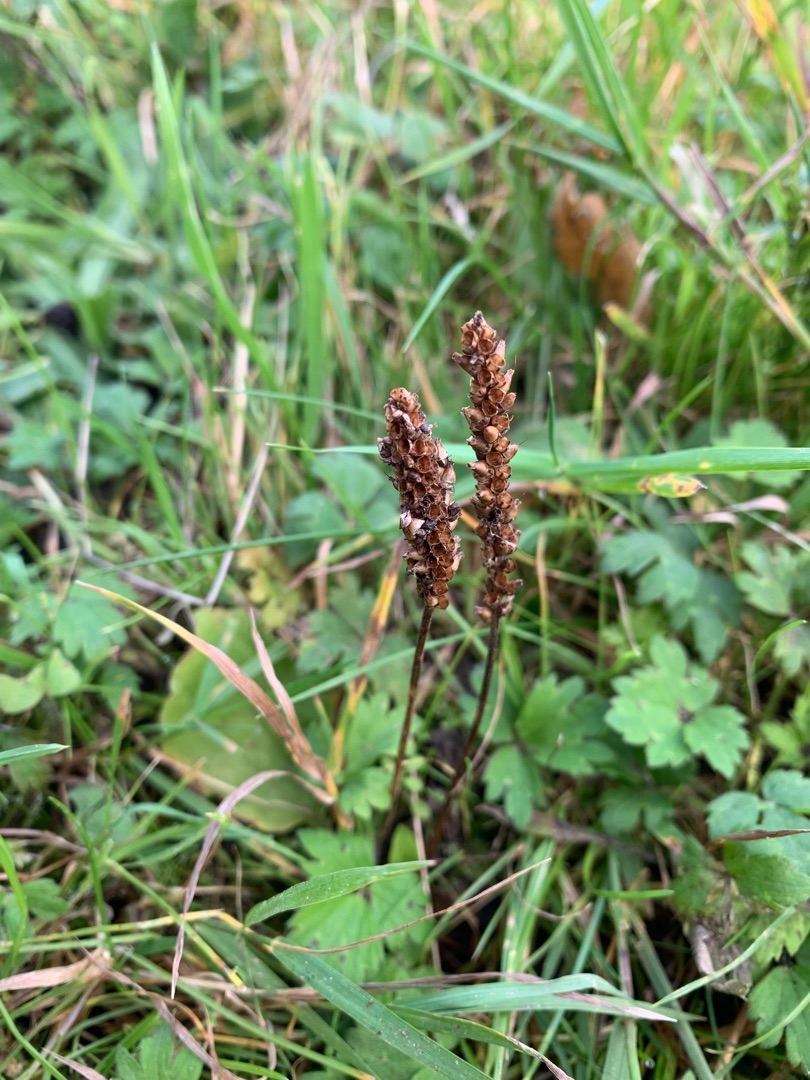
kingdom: Plantae
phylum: Tracheophyta
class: Magnoliopsida
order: Lamiales
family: Plantaginaceae
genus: Plantago
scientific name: Plantago major
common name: Glat vejbred
